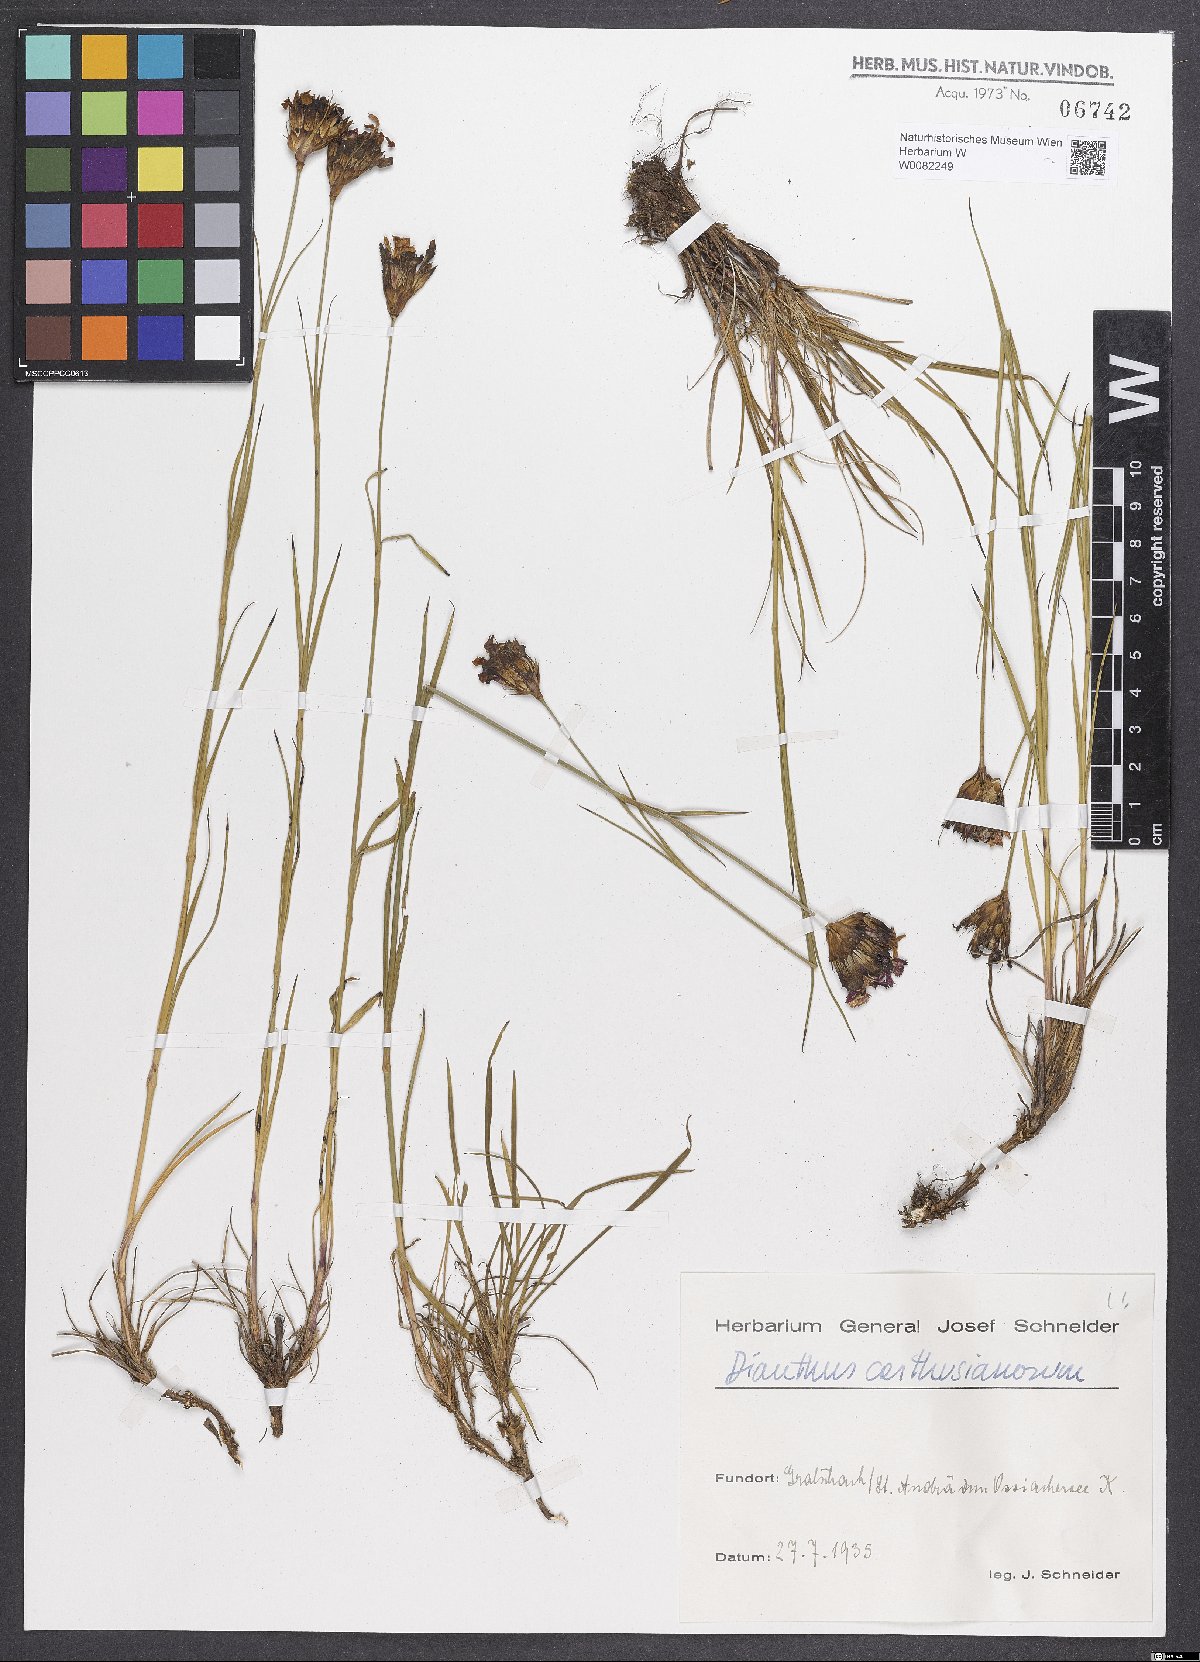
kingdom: Plantae
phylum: Tracheophyta
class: Magnoliopsida
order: Caryophyllales
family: Caryophyllaceae
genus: Dianthus
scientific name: Dianthus carthusianorum
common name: Carthusian pink
